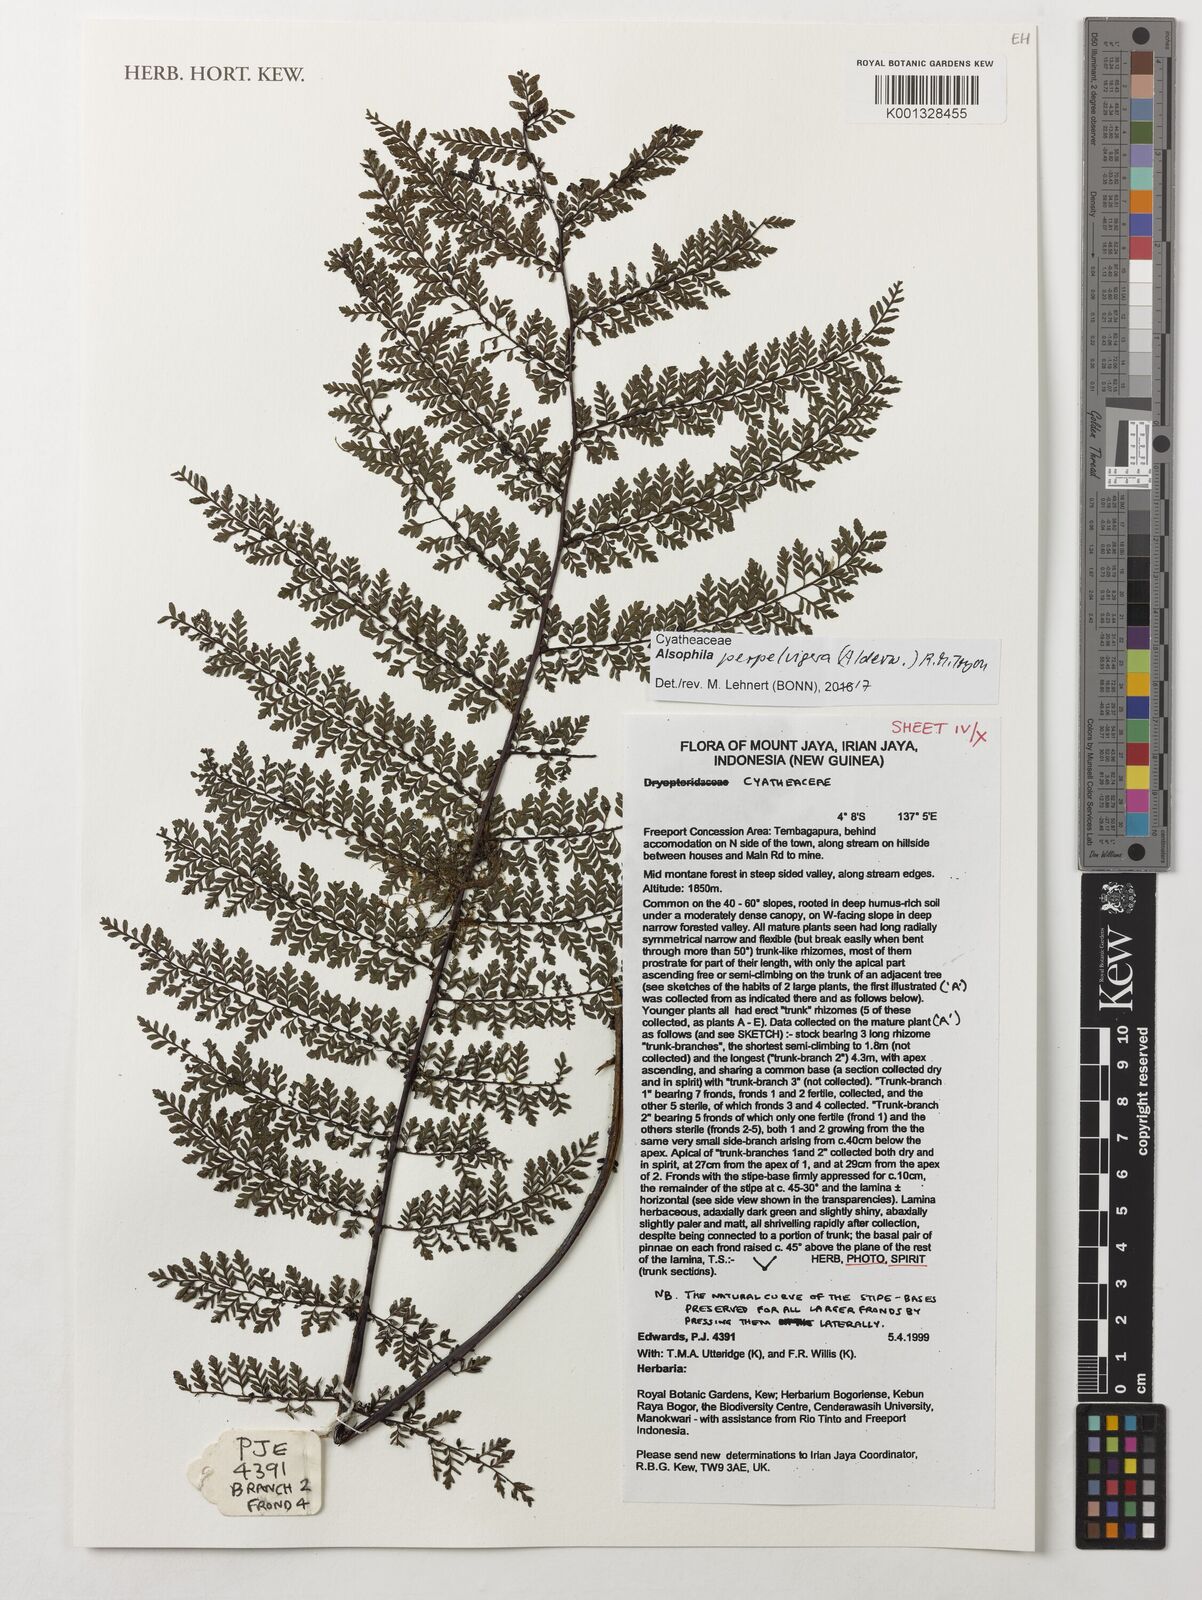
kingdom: Plantae
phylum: Tracheophyta
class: Polypodiopsida
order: Cyatheales
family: Cyatheaceae
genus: Alsophila
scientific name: Alsophila perpelvigera
